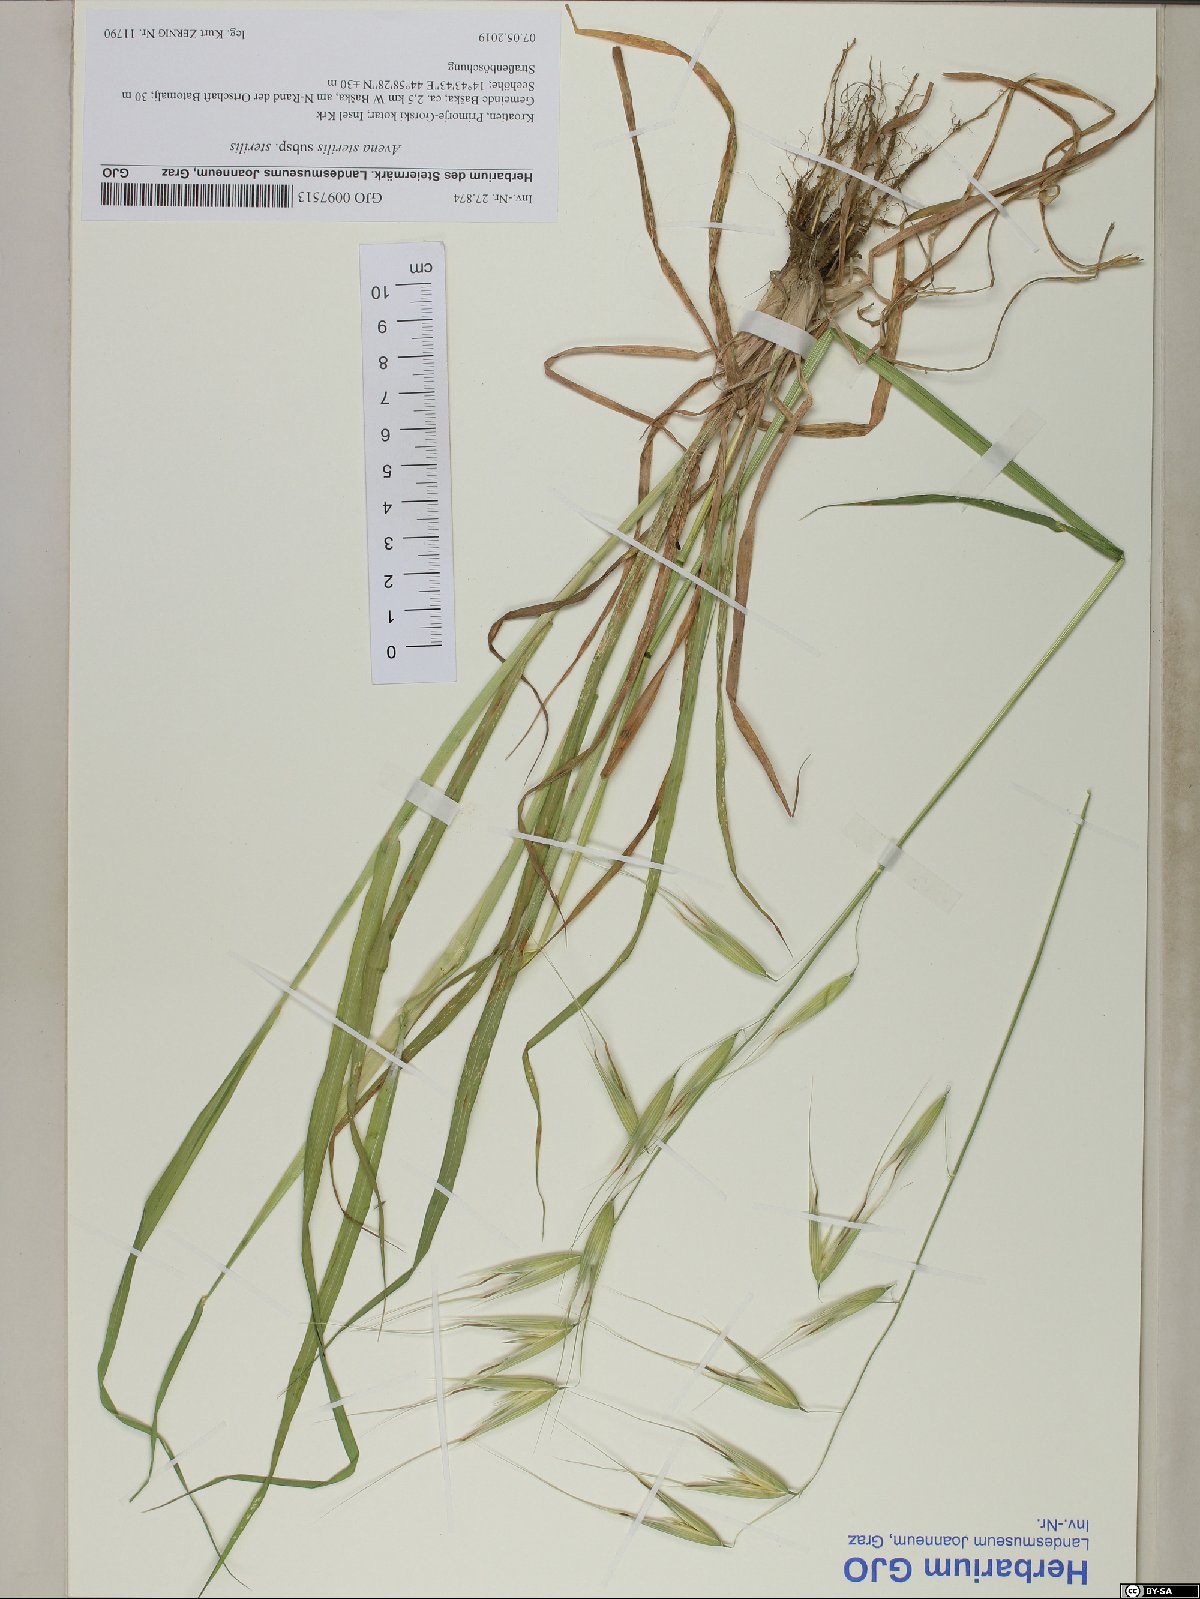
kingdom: Plantae
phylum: Tracheophyta
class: Liliopsida
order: Poales
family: Poaceae
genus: Avena
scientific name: Avena sterilis
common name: Animated oat
